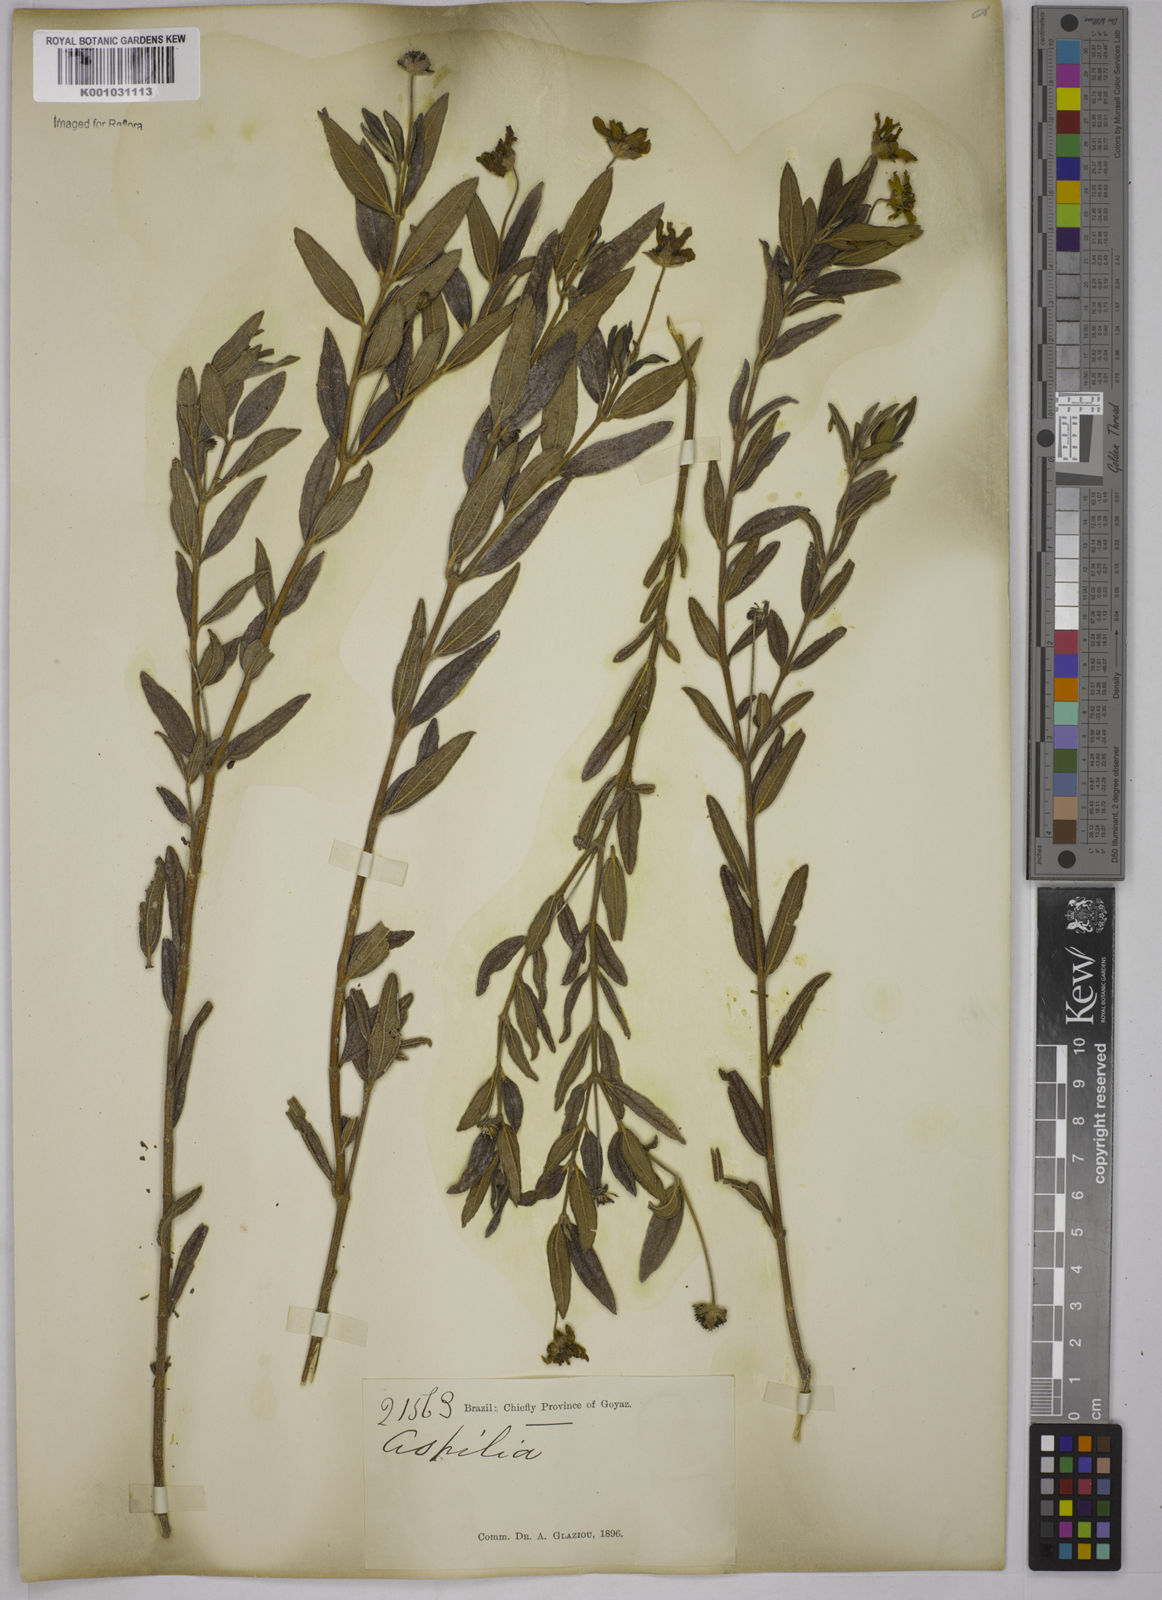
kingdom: Plantae
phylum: Tracheophyta
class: Magnoliopsida
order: Asterales
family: Asteraceae
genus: Aspilia
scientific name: Aspilia
